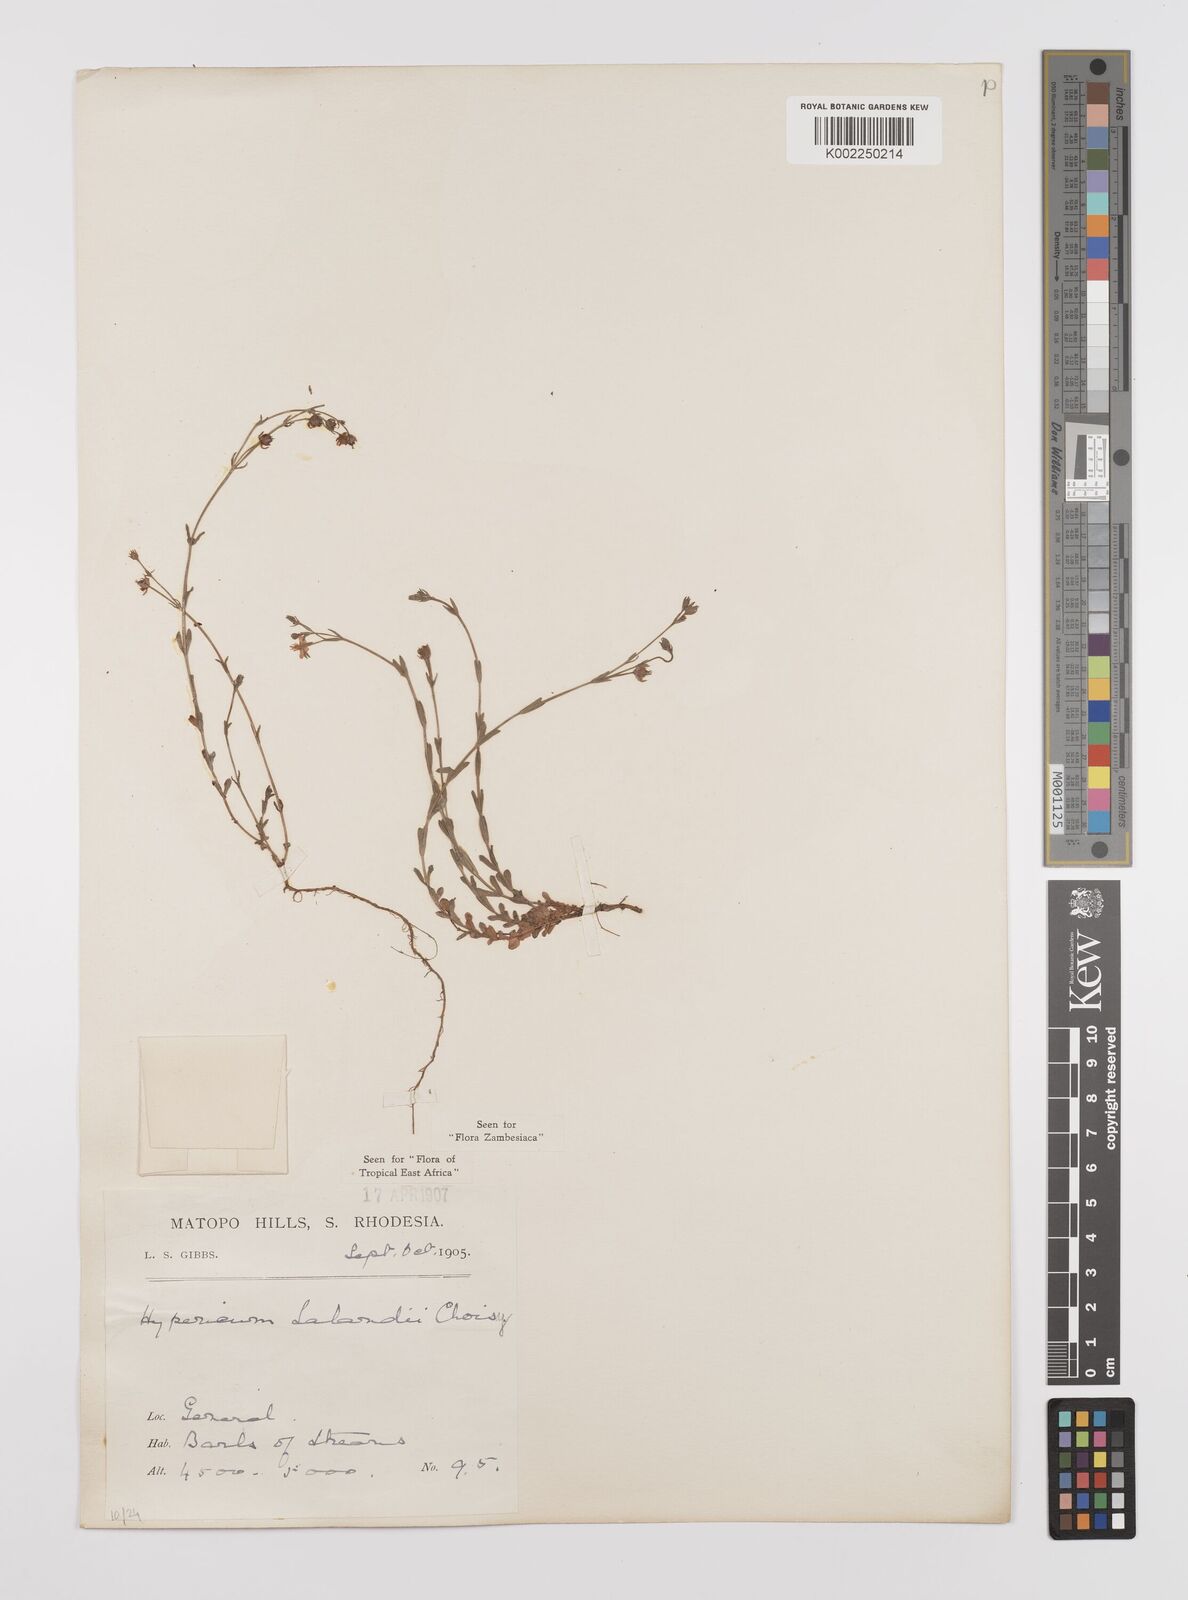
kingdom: Plantae
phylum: Tracheophyta
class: Magnoliopsida
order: Malpighiales
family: Hypericaceae
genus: Hypericum
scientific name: Hypericum lalandii
